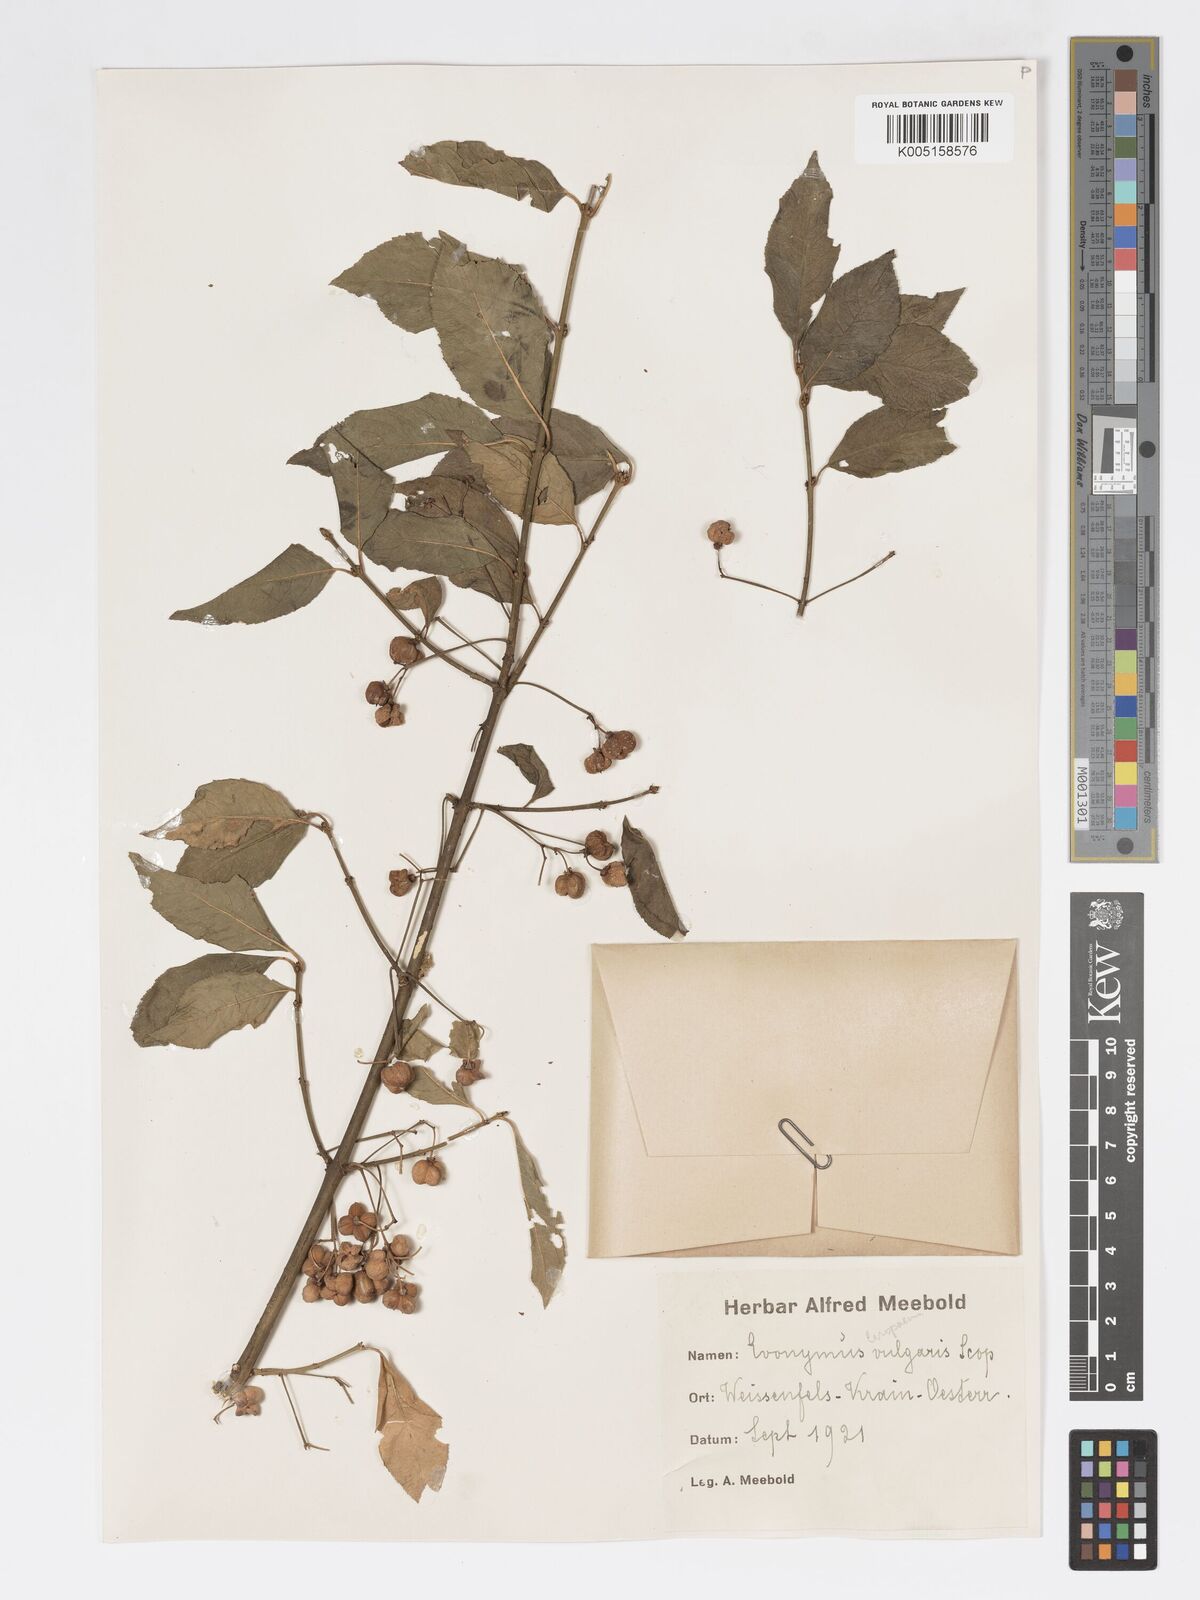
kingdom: Plantae
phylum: Tracheophyta
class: Magnoliopsida
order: Celastrales
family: Celastraceae
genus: Euonymus
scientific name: Euonymus europaeus
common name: Spindle
